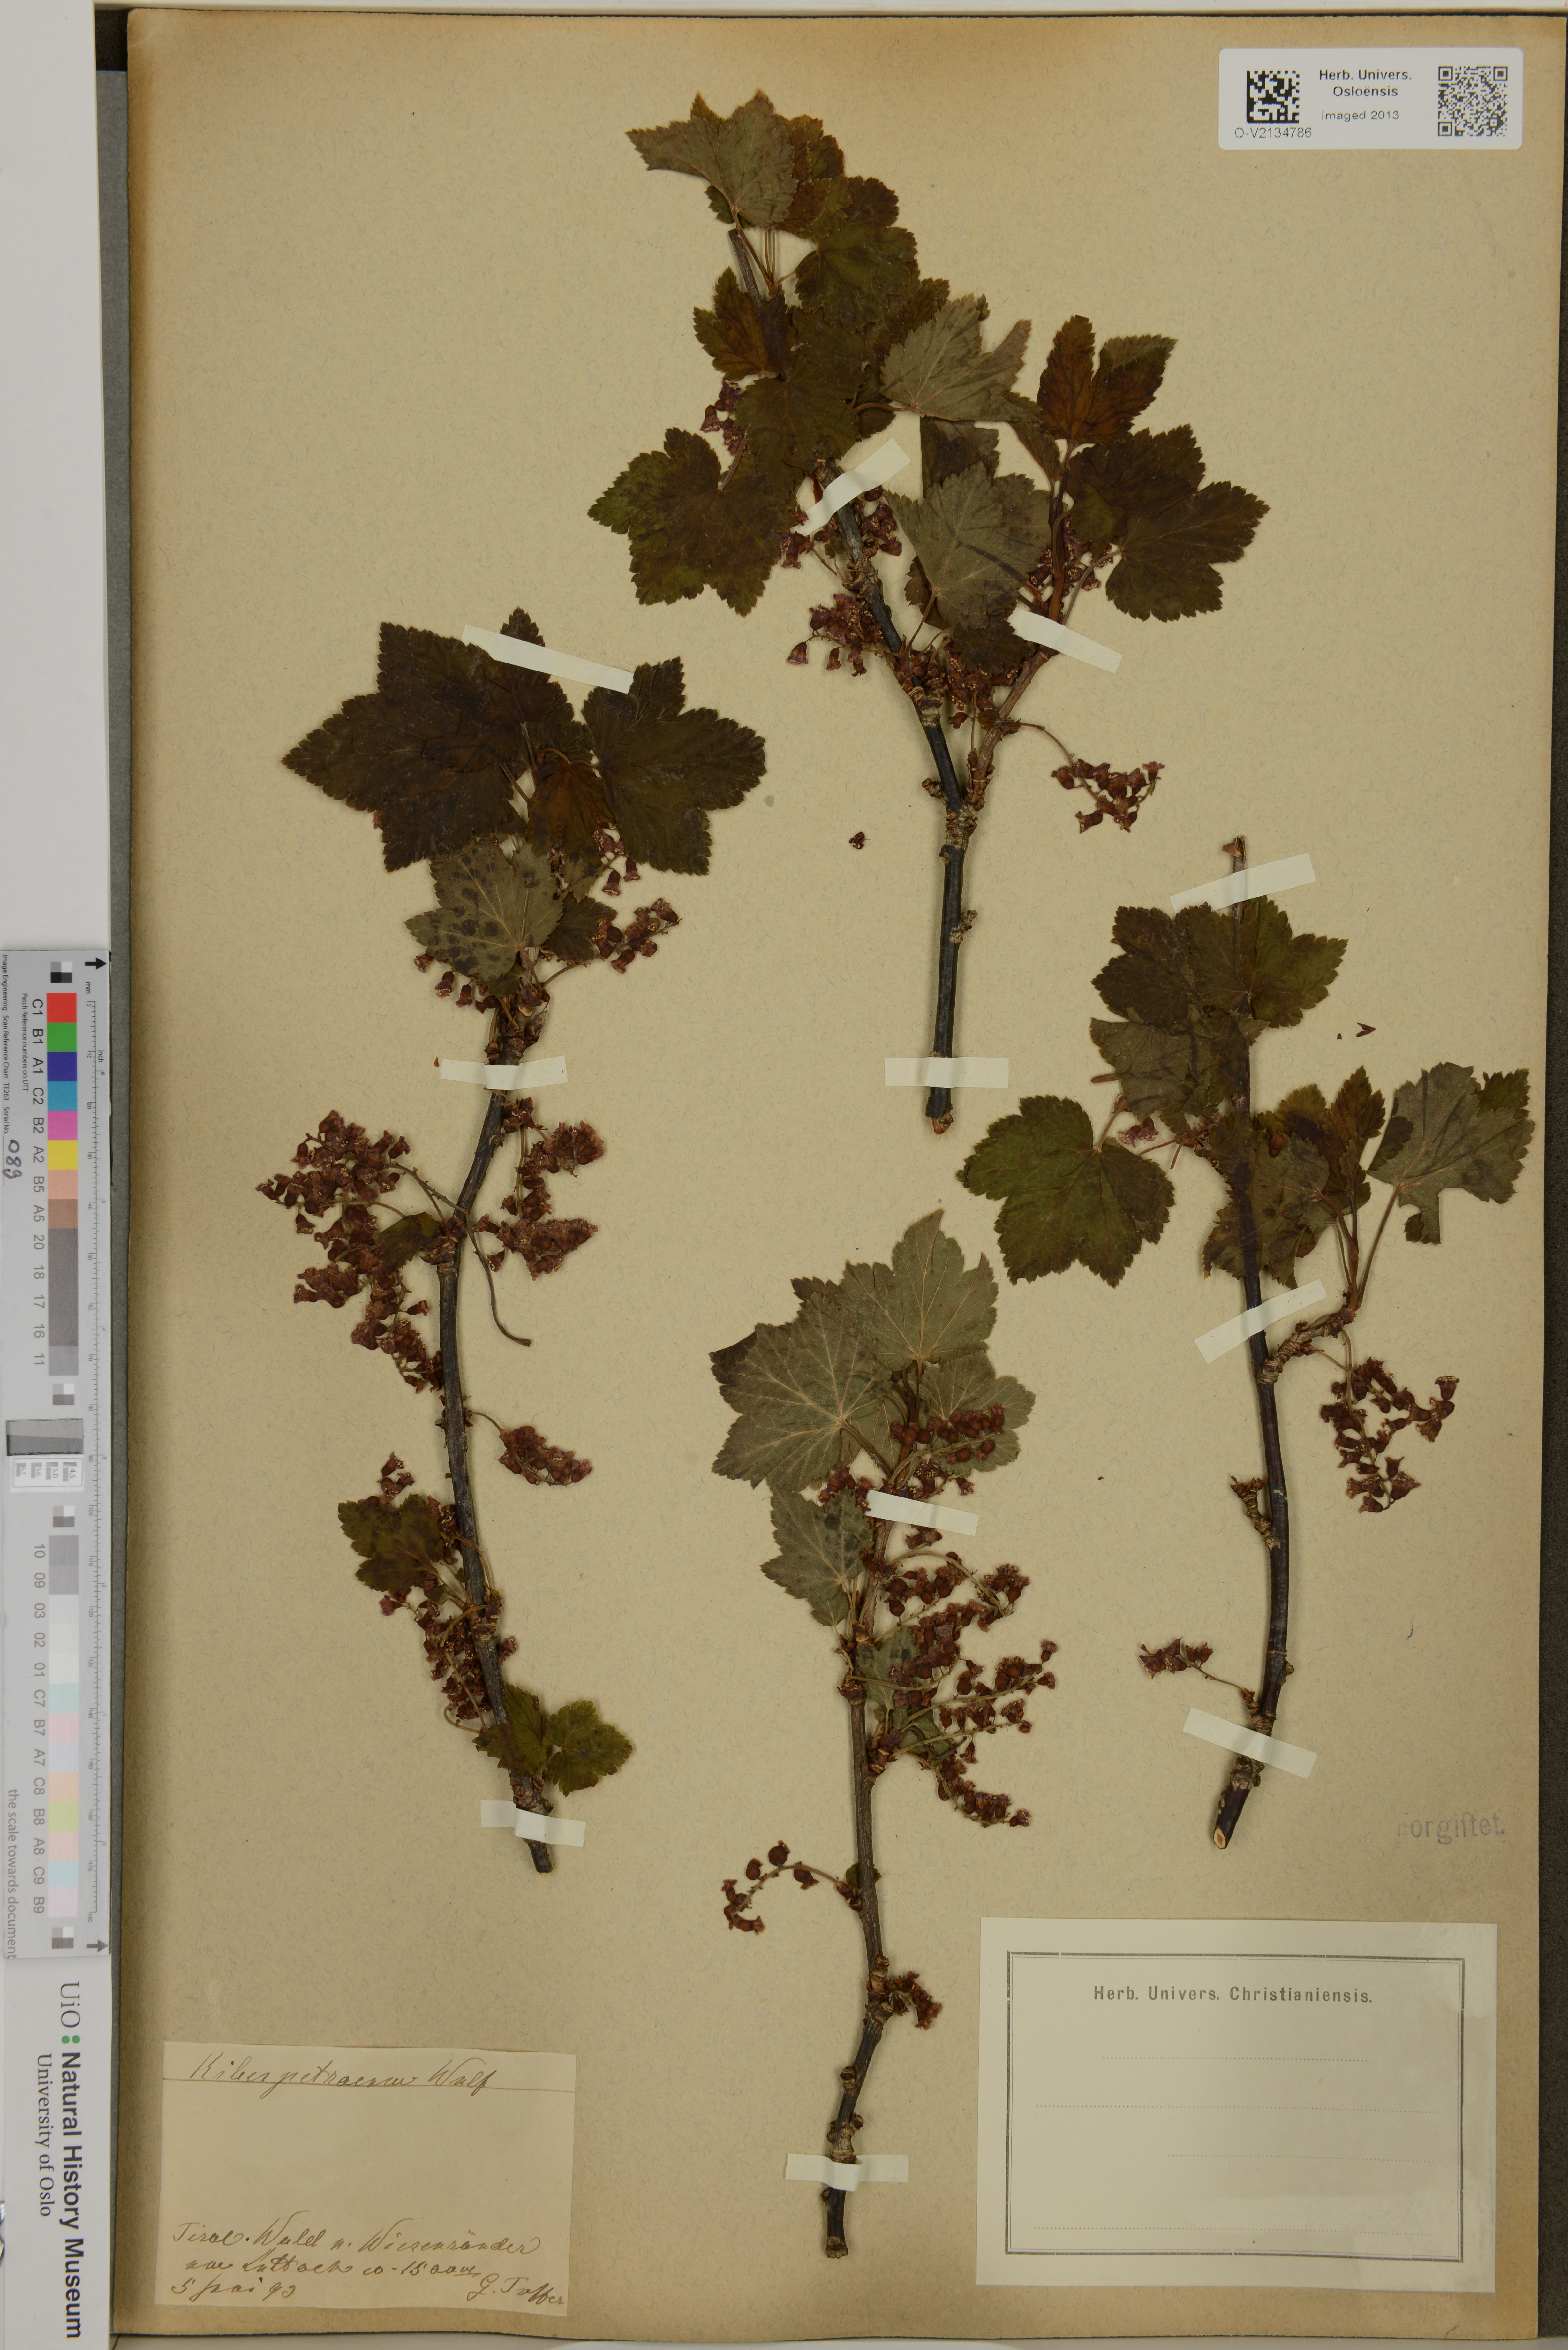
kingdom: Plantae
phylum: Tracheophyta
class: Magnoliopsida
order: Saxifragales
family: Grossulariaceae
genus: Ribes
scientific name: Ribes petraeum
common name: Rock currant
